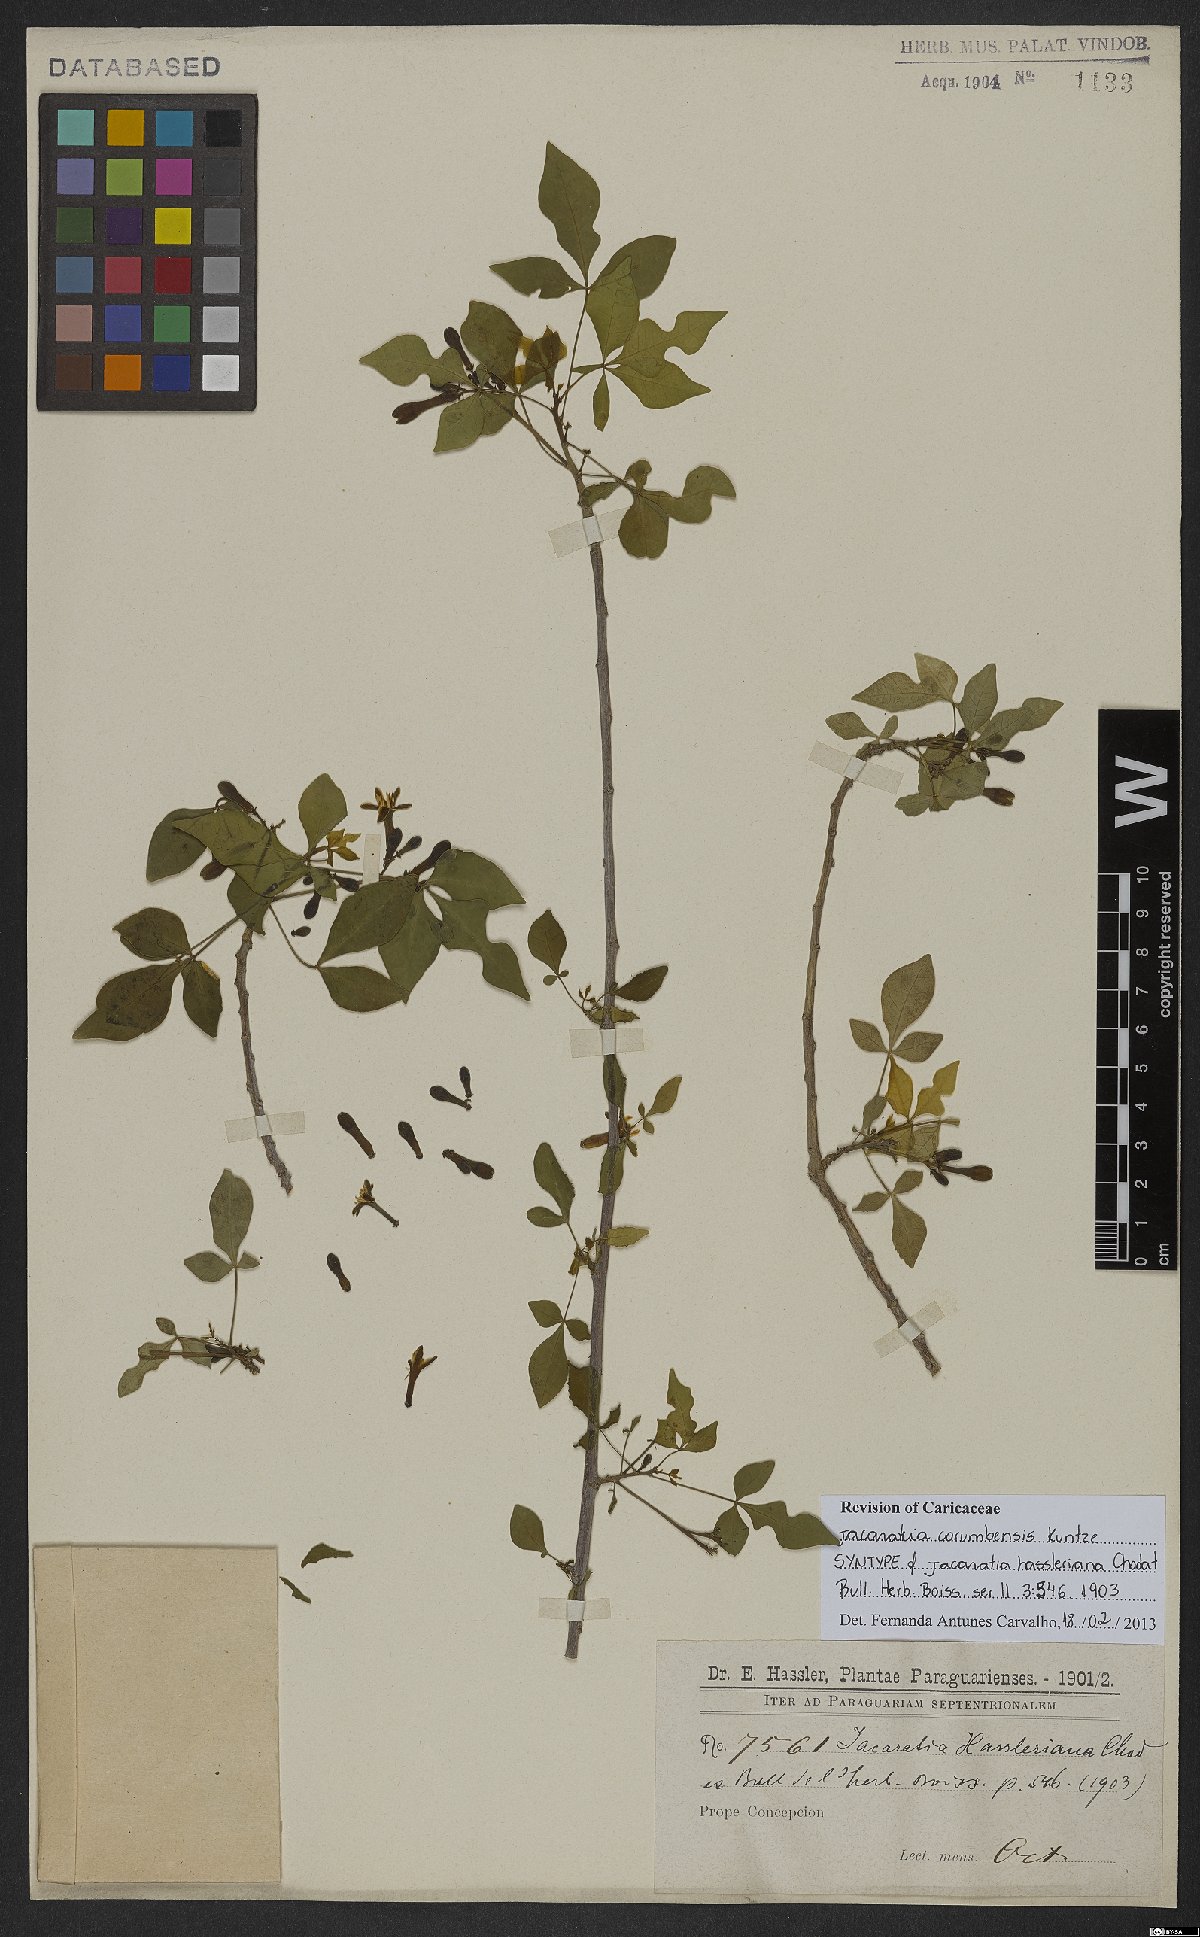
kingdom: Plantae
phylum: Tracheophyta
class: Magnoliopsida
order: Brassicales
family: Caricaceae
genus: Jacaratia
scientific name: Jacaratia corumbensis
